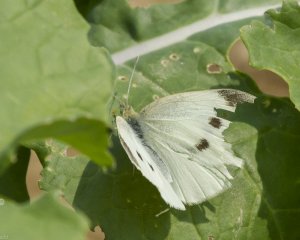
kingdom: Animalia
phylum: Arthropoda
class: Insecta
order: Lepidoptera
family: Pieridae
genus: Pieris
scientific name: Pieris rapae
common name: Cabbage White
